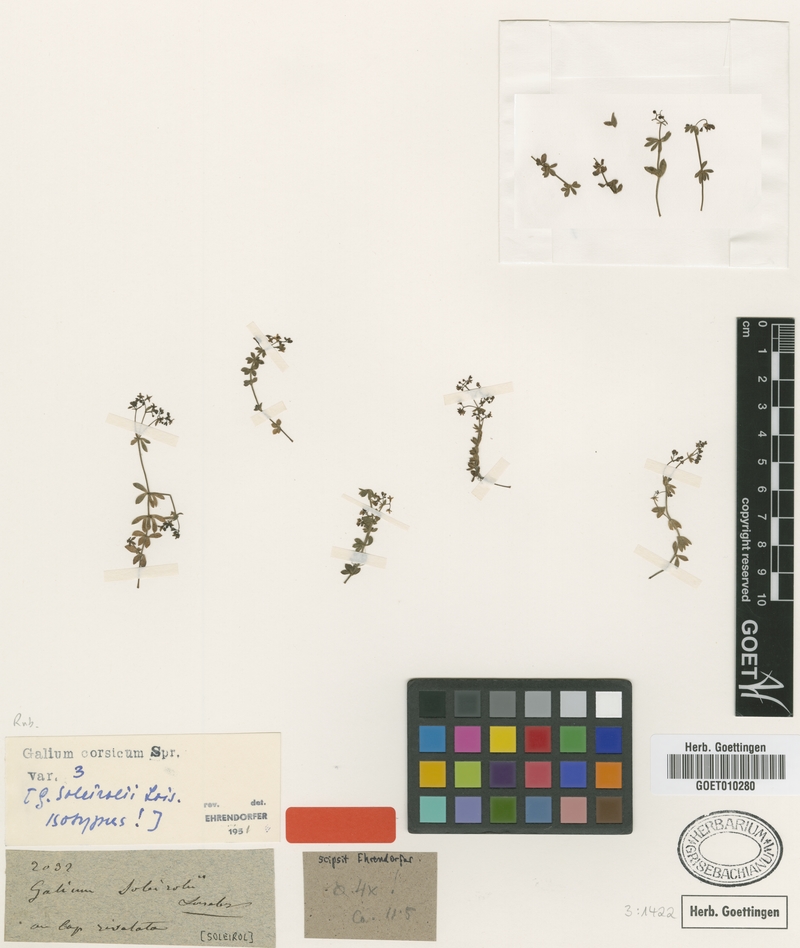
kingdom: Plantae
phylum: Tracheophyta
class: Magnoliopsida
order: Gentianales
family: Rubiaceae
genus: Galium
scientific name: Galium corsicum
